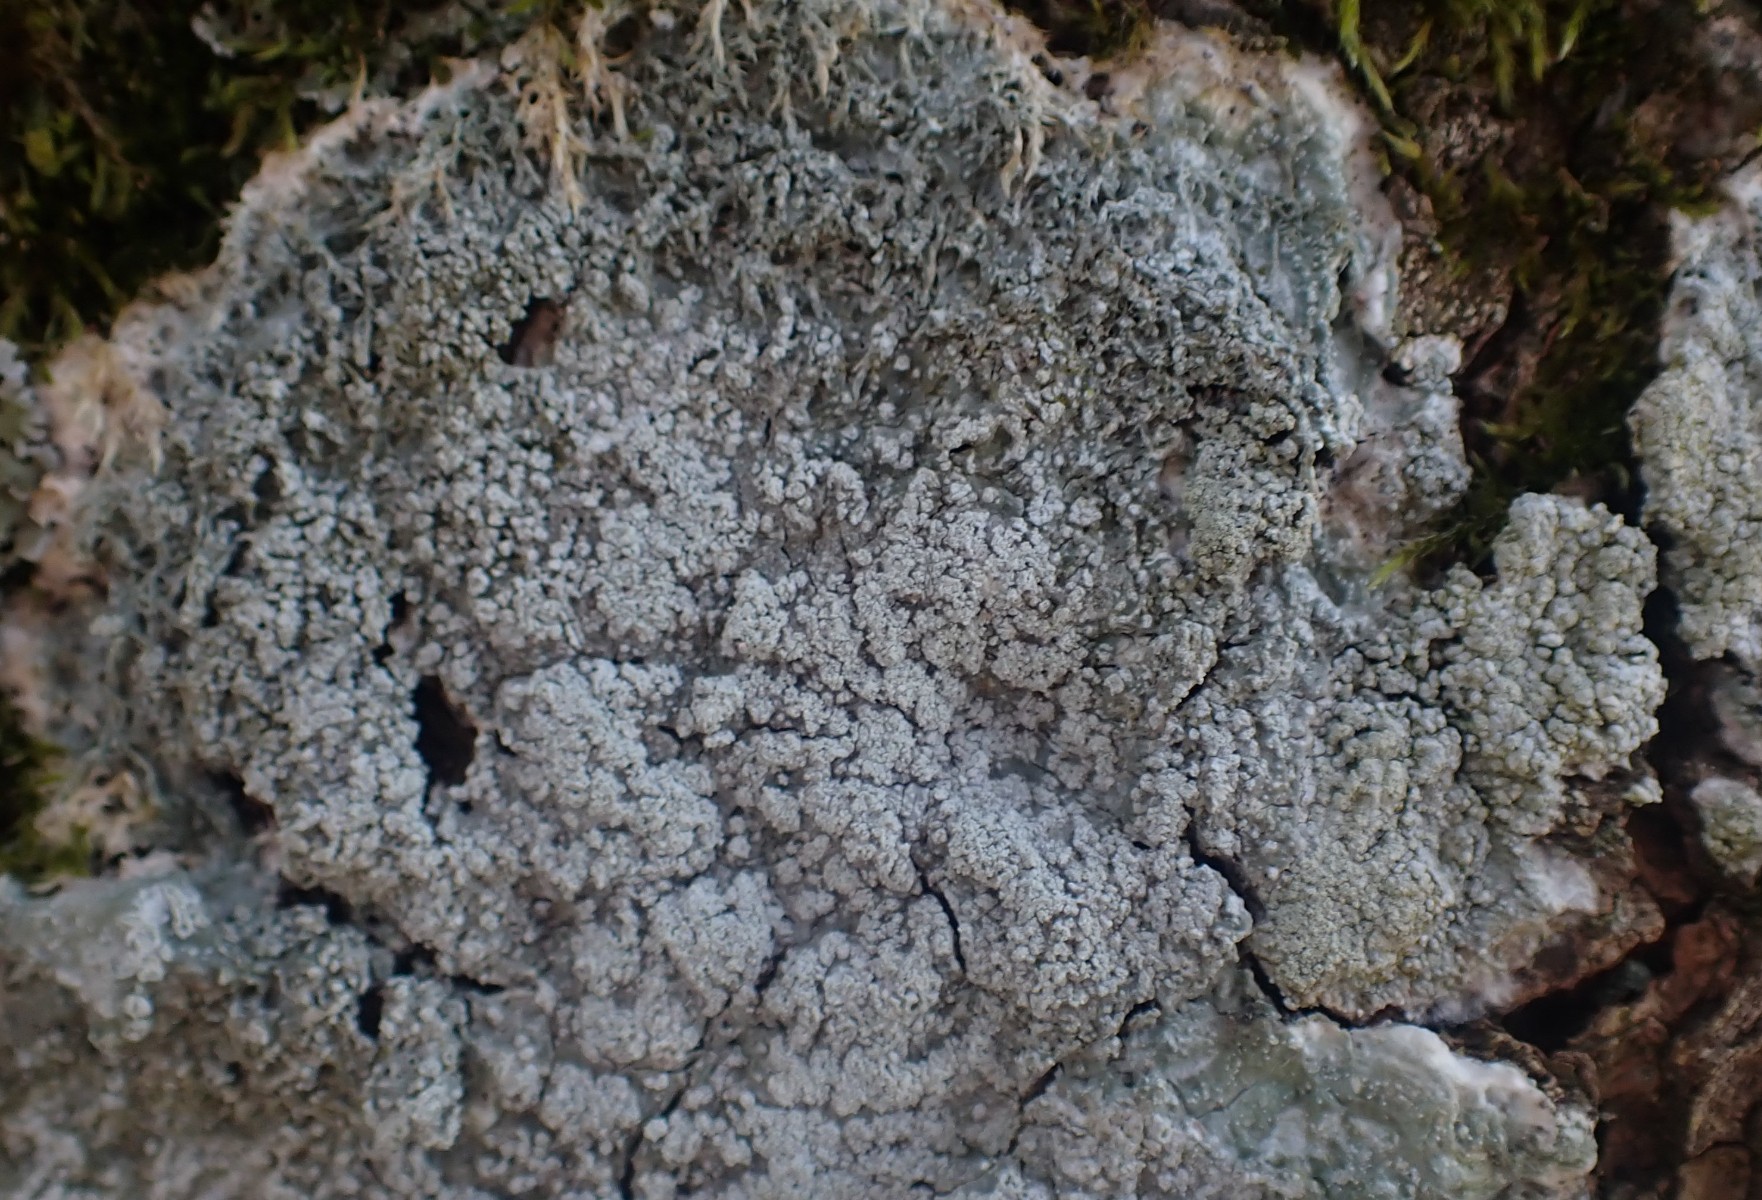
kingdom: Fungi
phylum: Ascomycota
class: Lecanoromycetes
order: Pertusariales
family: Pertusariaceae
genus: Lepra
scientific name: Lepra albescens
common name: hvidmelet prikvortelav
